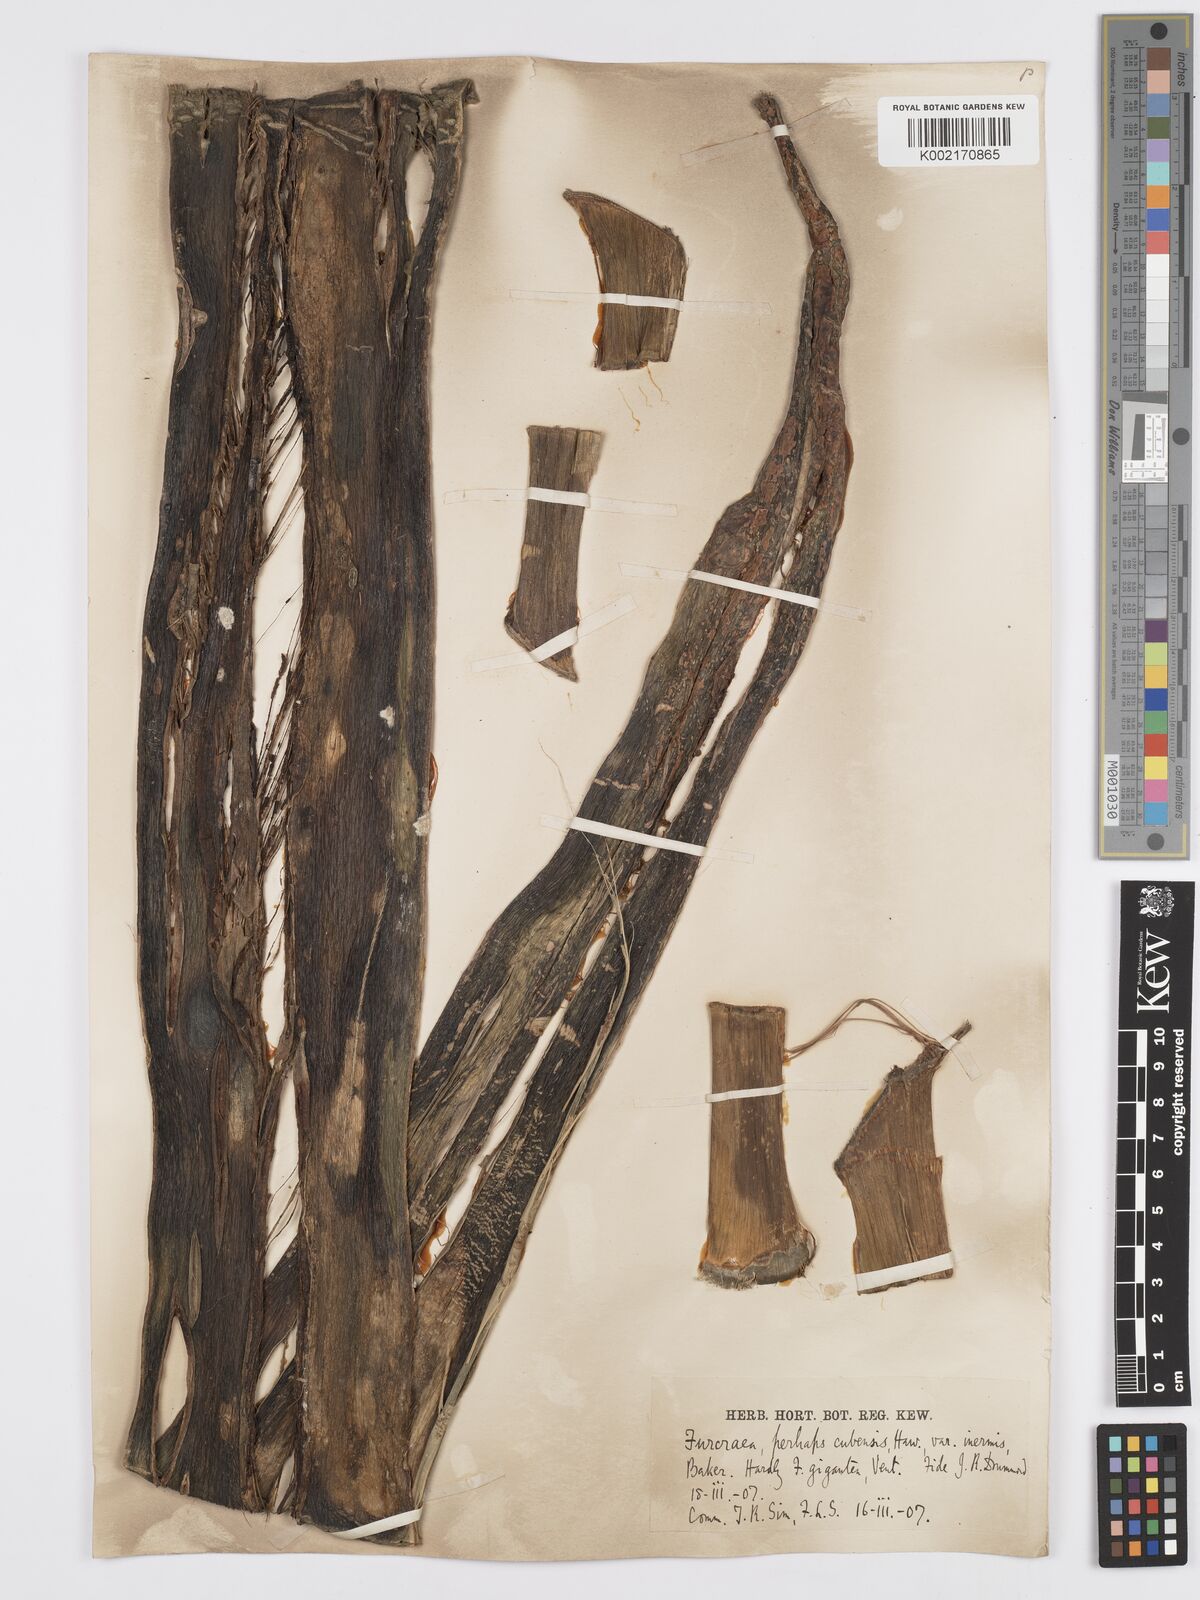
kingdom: Plantae
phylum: Tracheophyta
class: Liliopsida
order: Asparagales
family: Asparagaceae
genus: Furcraea
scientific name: Furcraea hexapetala
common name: Cuban-hemp
